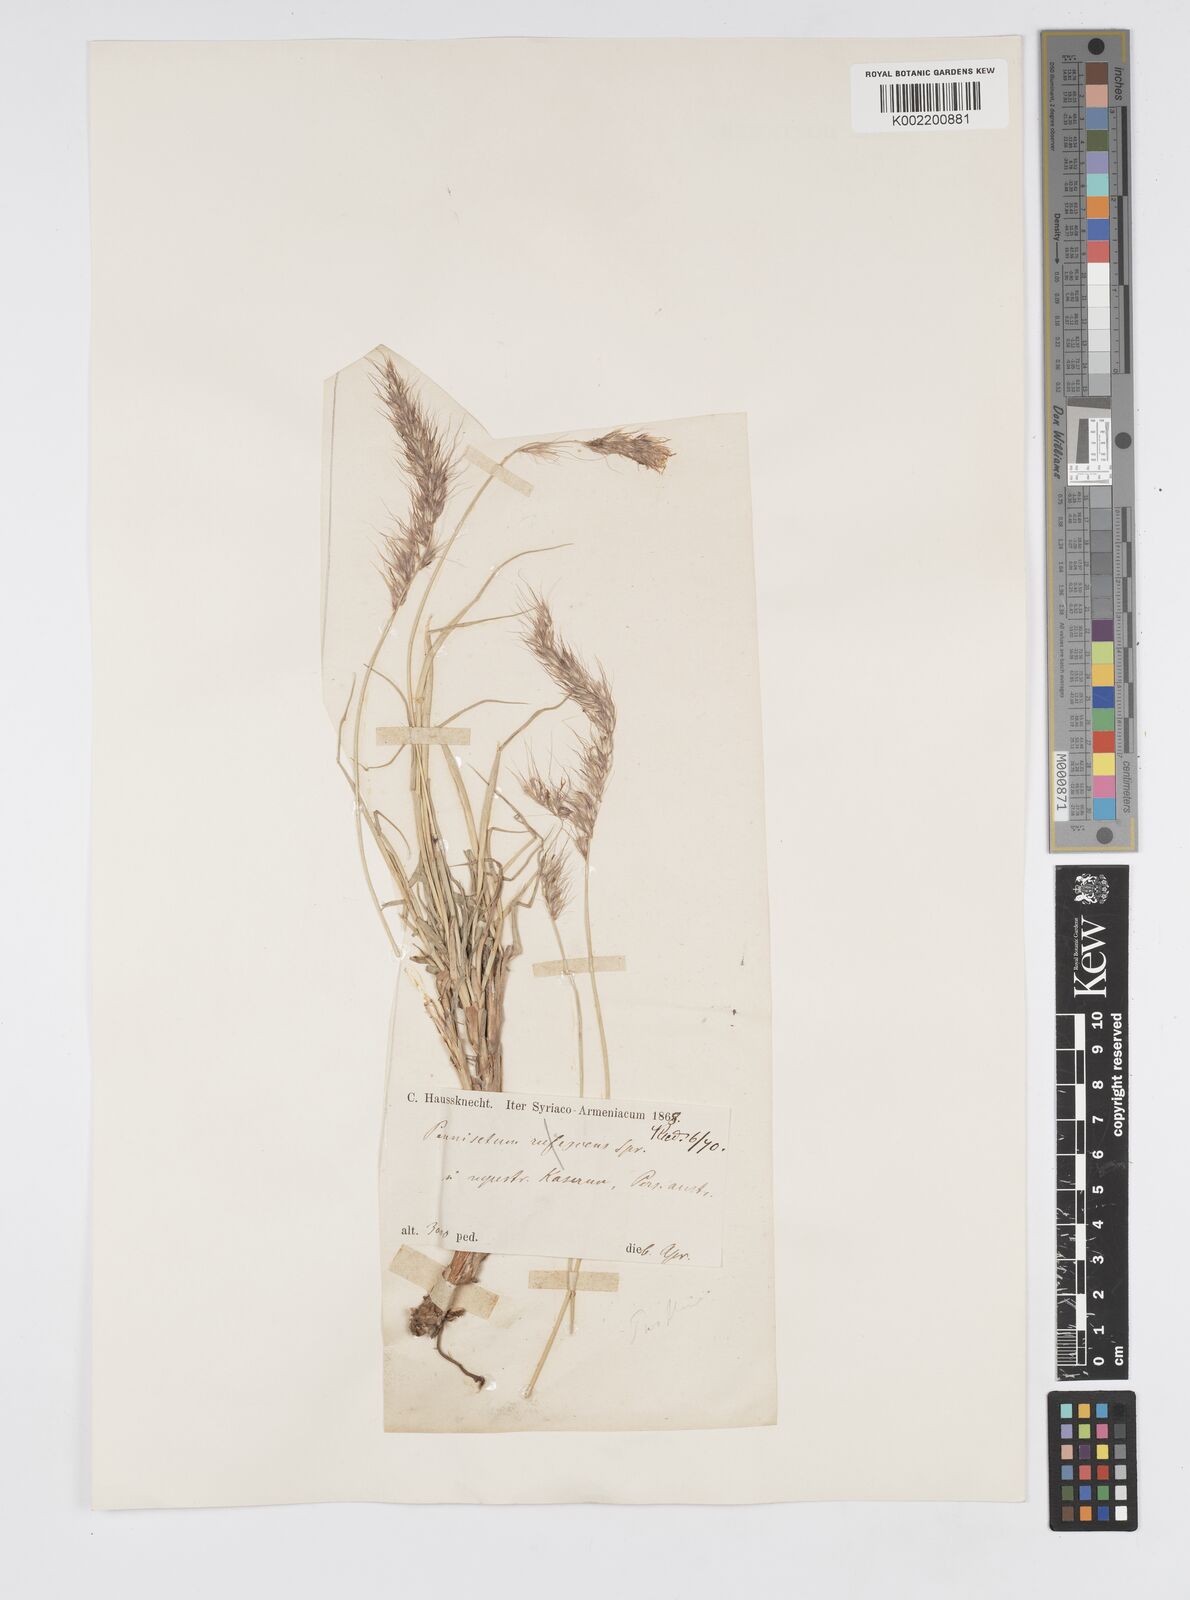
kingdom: Plantae
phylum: Tracheophyta
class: Liliopsida
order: Poales
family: Poaceae
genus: Cenchrus
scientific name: Cenchrus orientalis
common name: Oriental fountain grass
